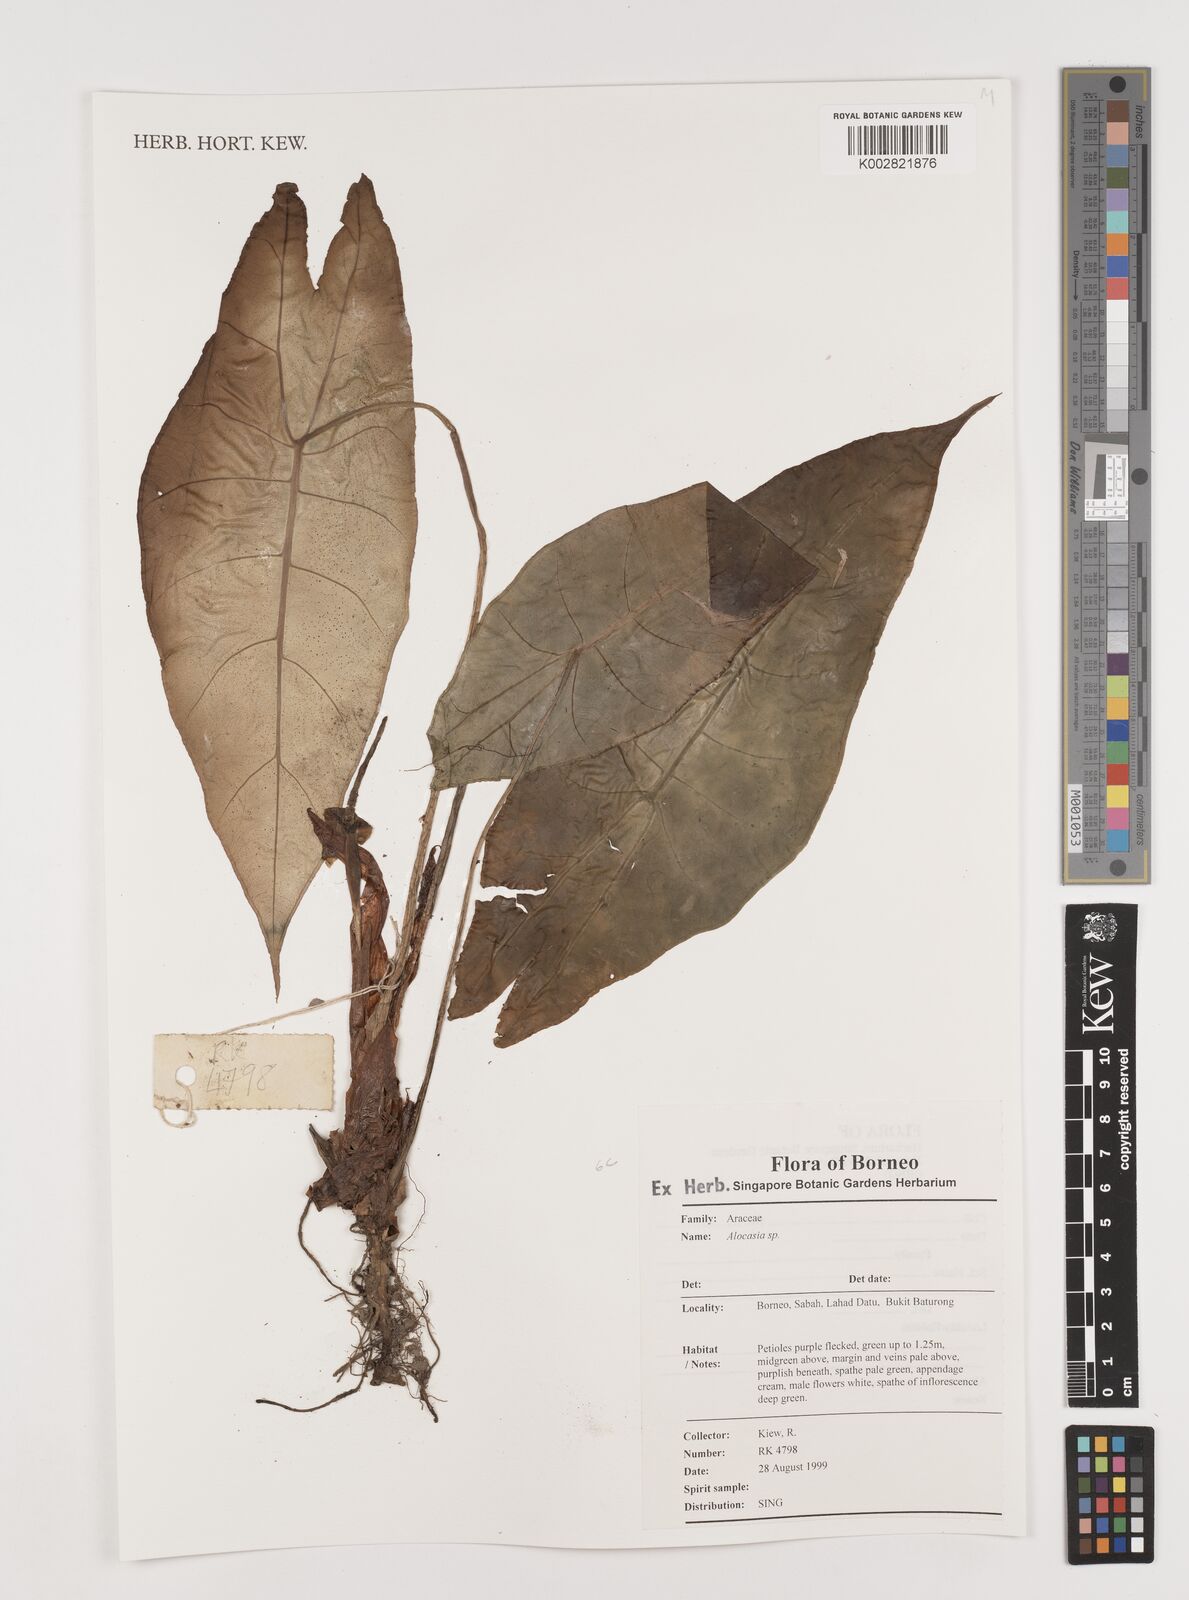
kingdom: Plantae
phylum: Tracheophyta
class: Liliopsida
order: Alismatales
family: Araceae
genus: Alocasia
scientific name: Alocasia
